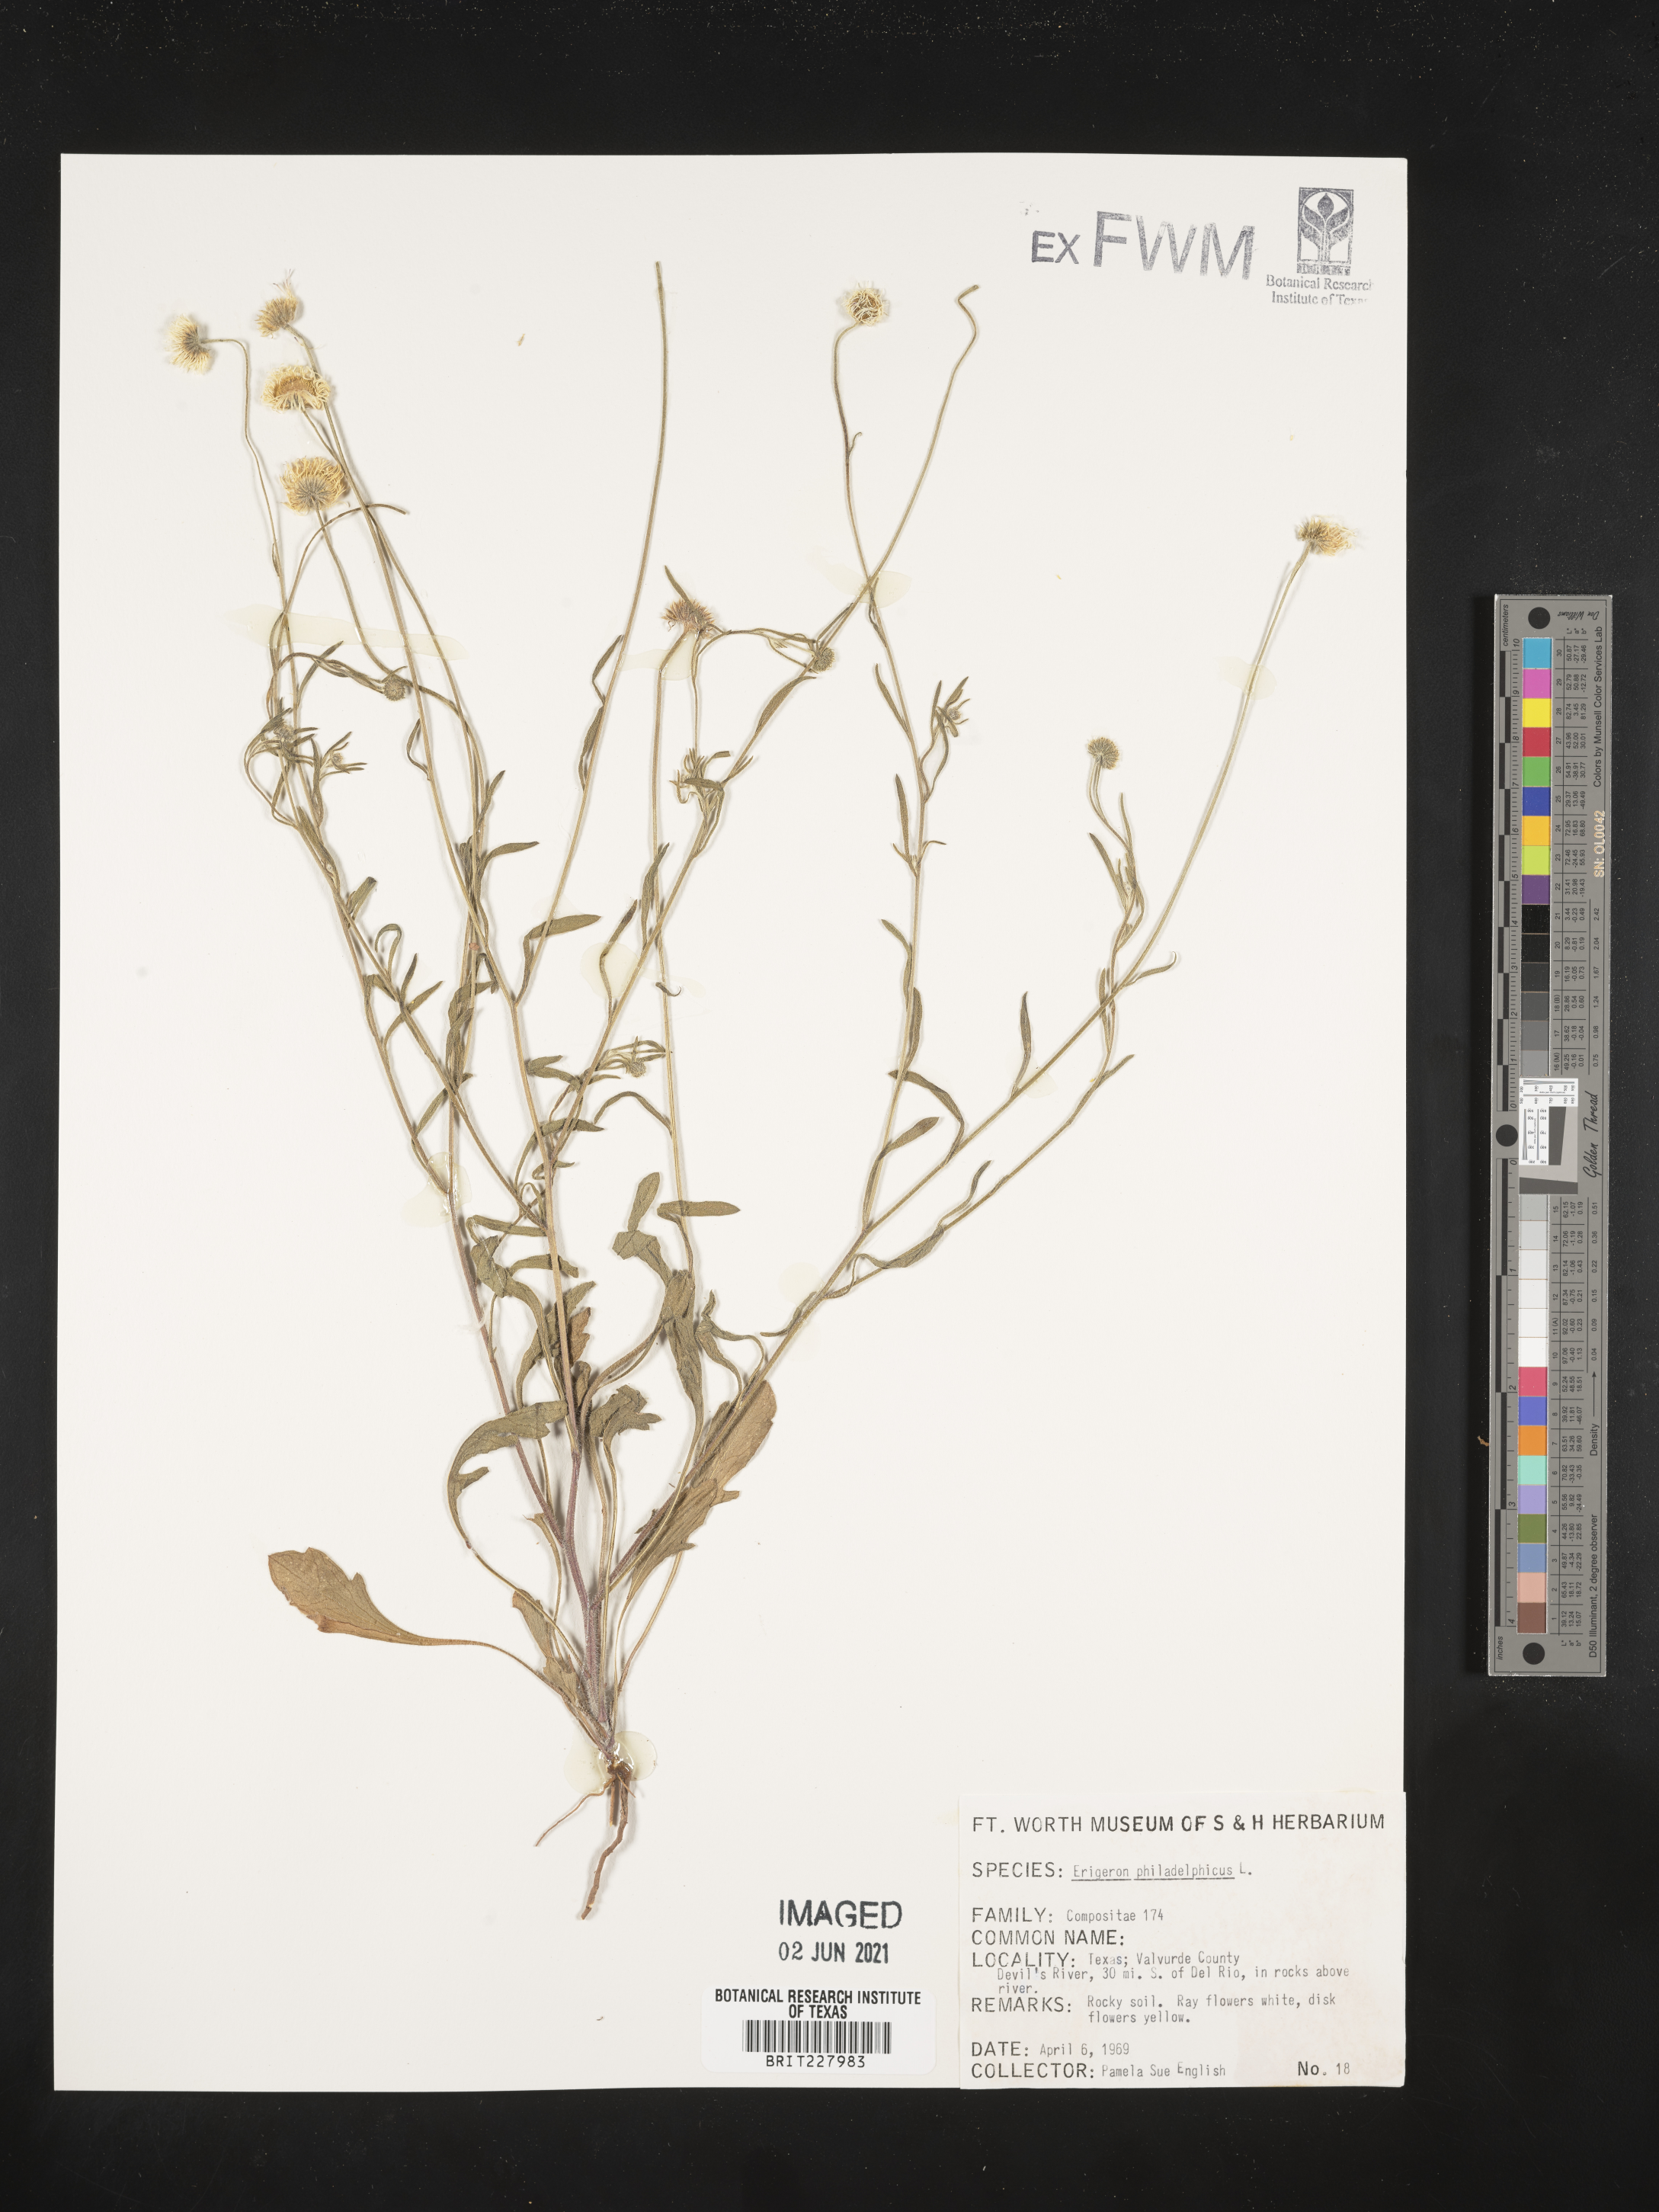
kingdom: Plantae
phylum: Tracheophyta
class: Magnoliopsida
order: Asterales
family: Asteraceae
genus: Erigeron
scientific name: Erigeron philadelphicus
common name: Robin's-plantain
